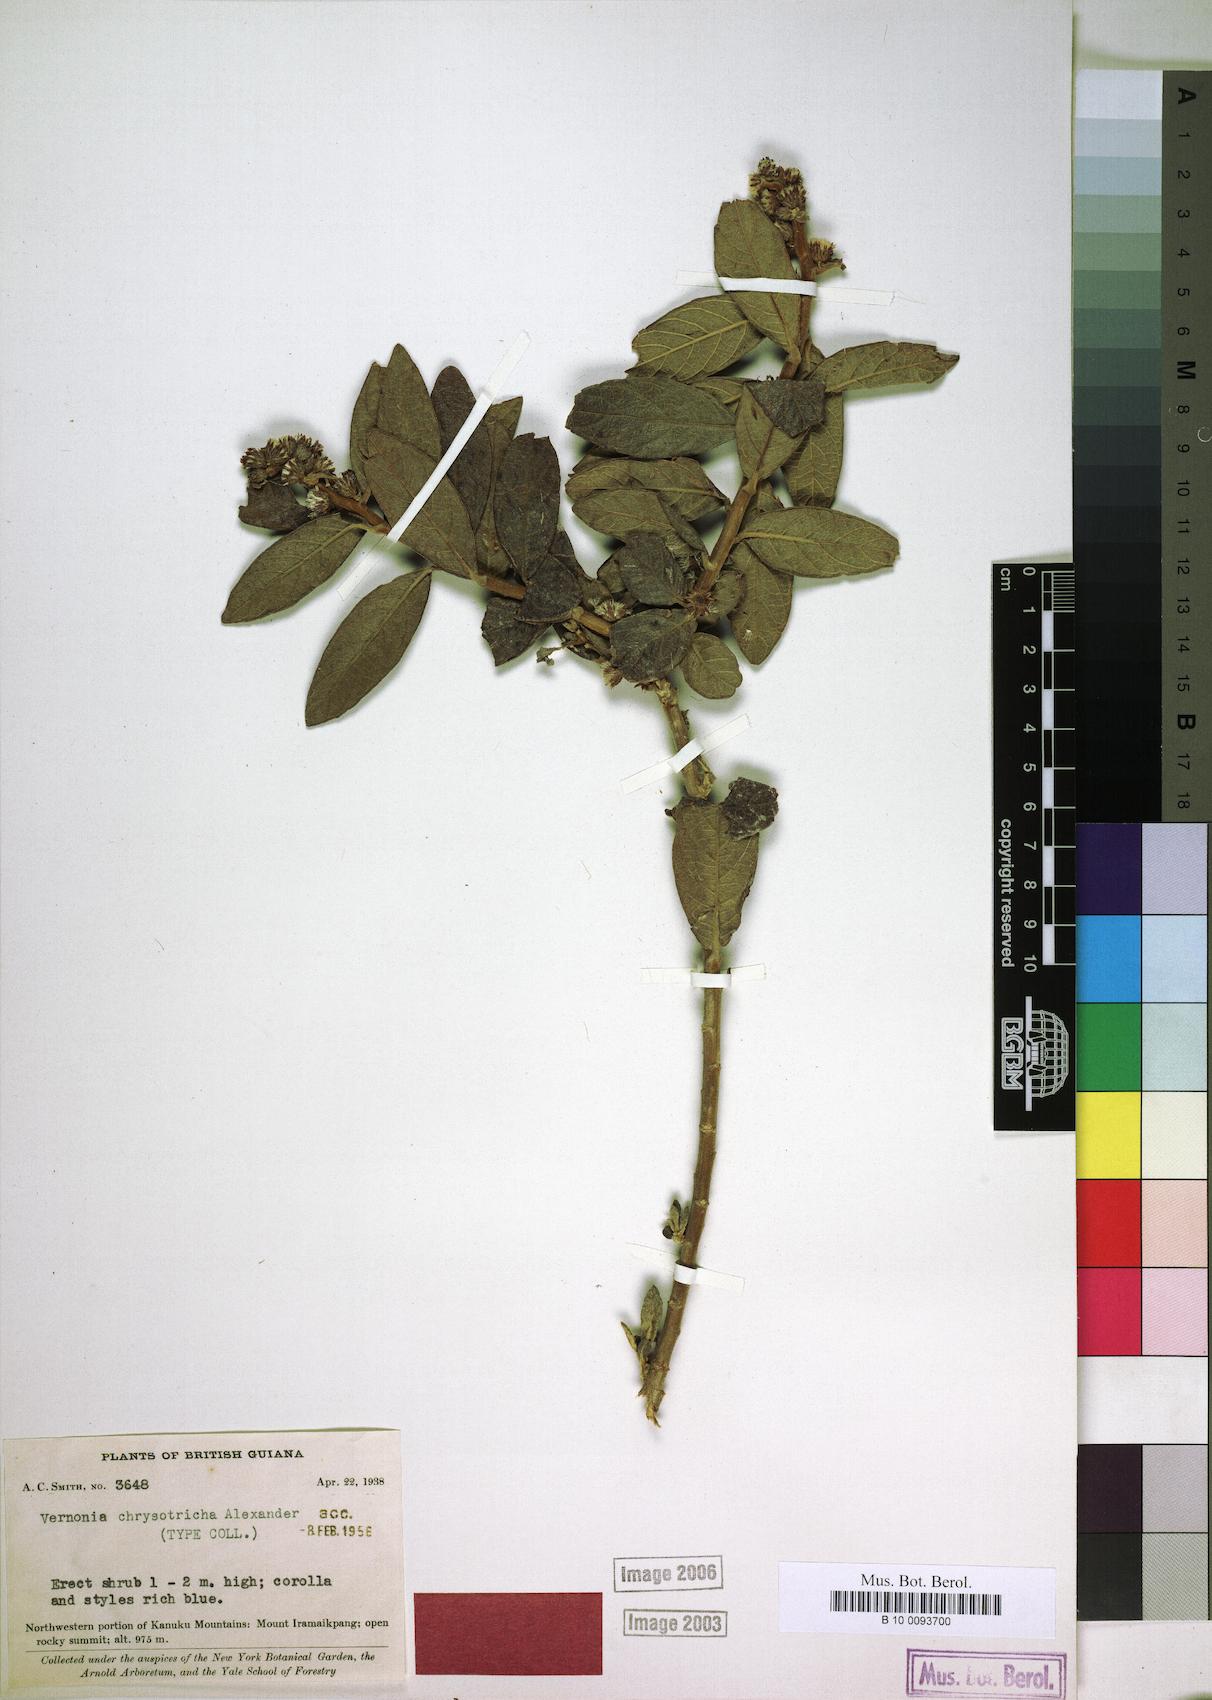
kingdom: Plantae
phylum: Tracheophyta
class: Magnoliopsida
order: Asterales
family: Asteraceae
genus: Lepidaploa
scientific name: Lepidaploa chrysotricha
